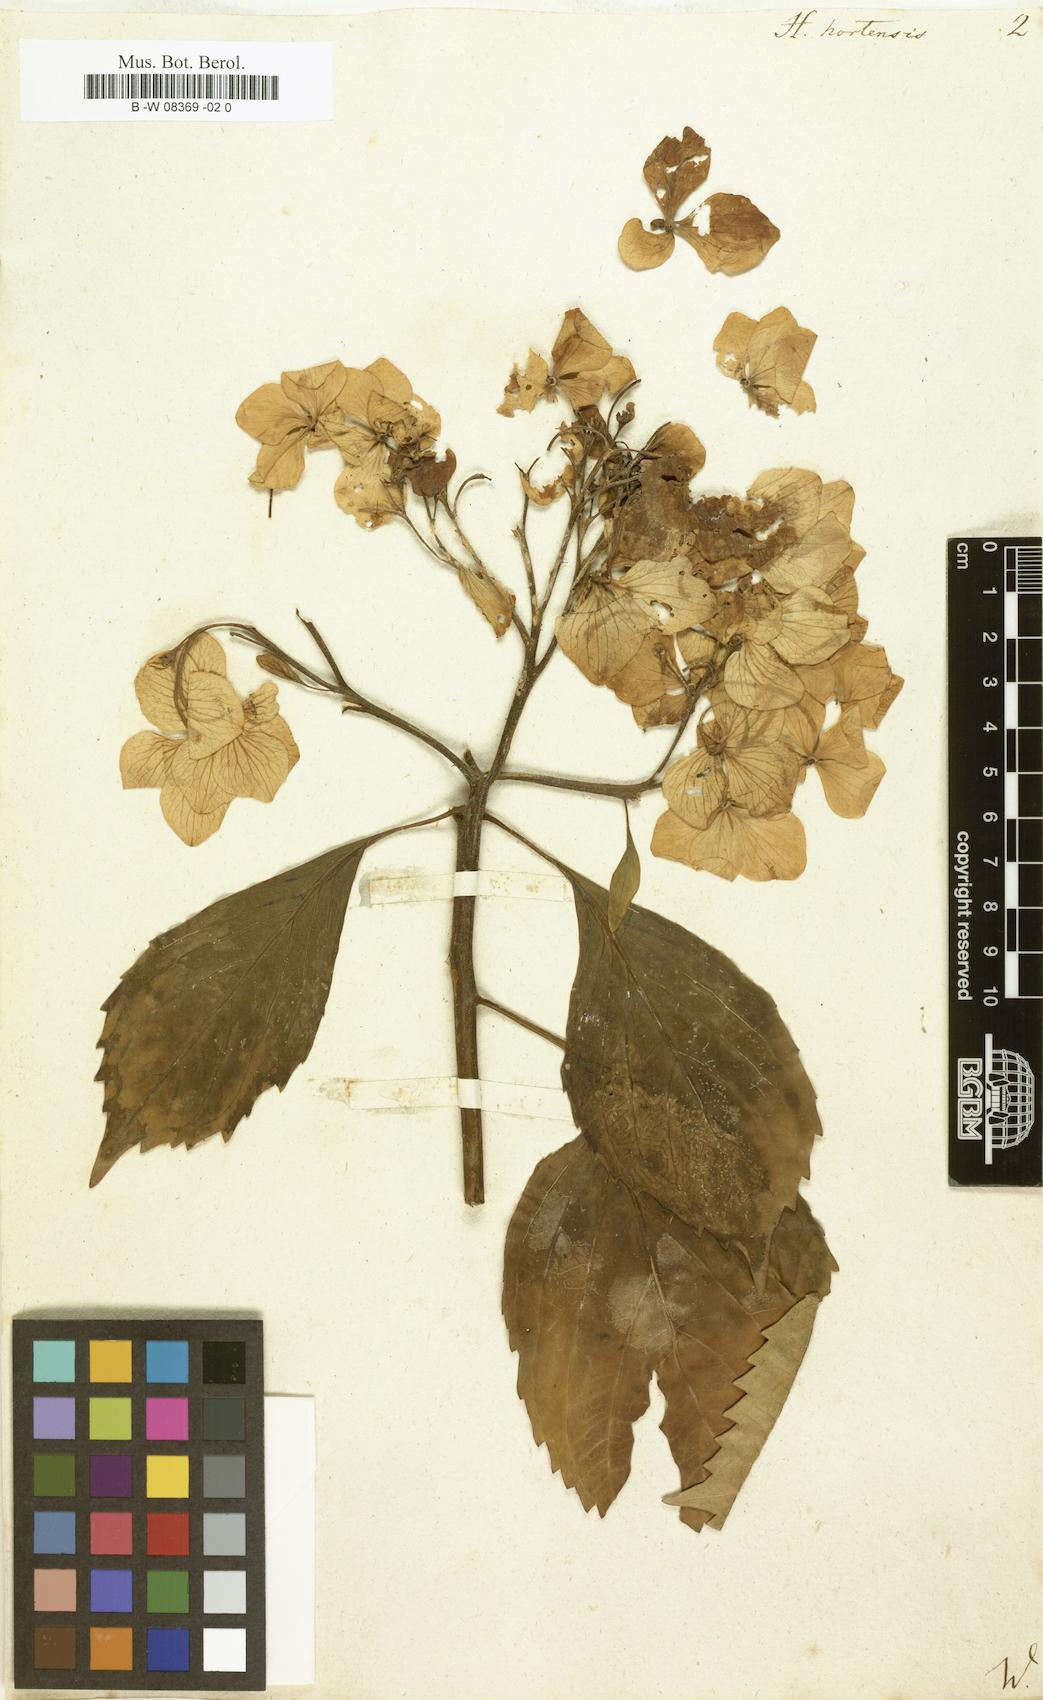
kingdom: Plantae
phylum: Tracheophyta
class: Magnoliopsida
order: Cornales
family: Hydrangeaceae
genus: Hydrangea
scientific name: Hydrangea macrophylla
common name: Hydrangea
